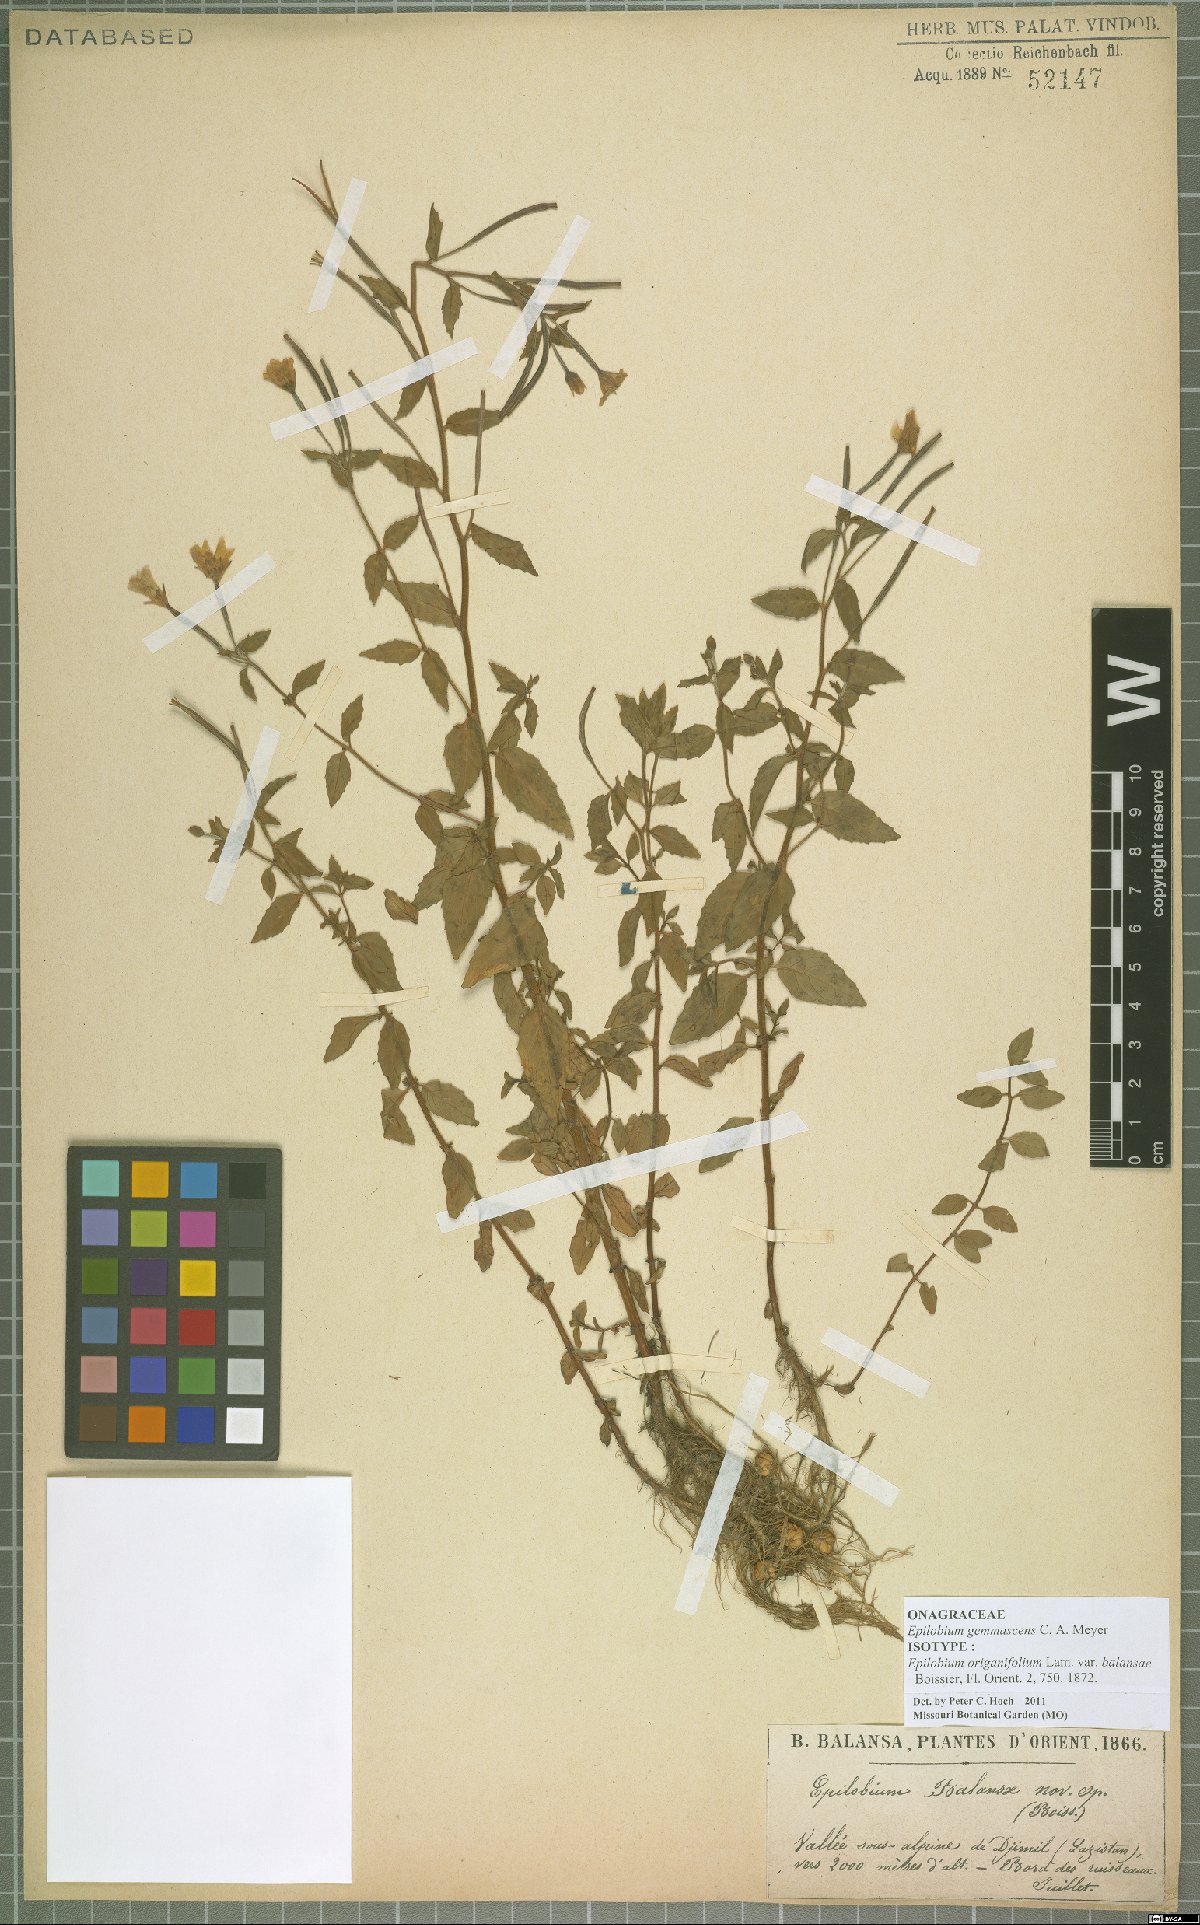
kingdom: Plantae
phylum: Tracheophyta
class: Magnoliopsida
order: Myrtales
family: Onagraceae
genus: Epilobium
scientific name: Epilobium gemmascens
